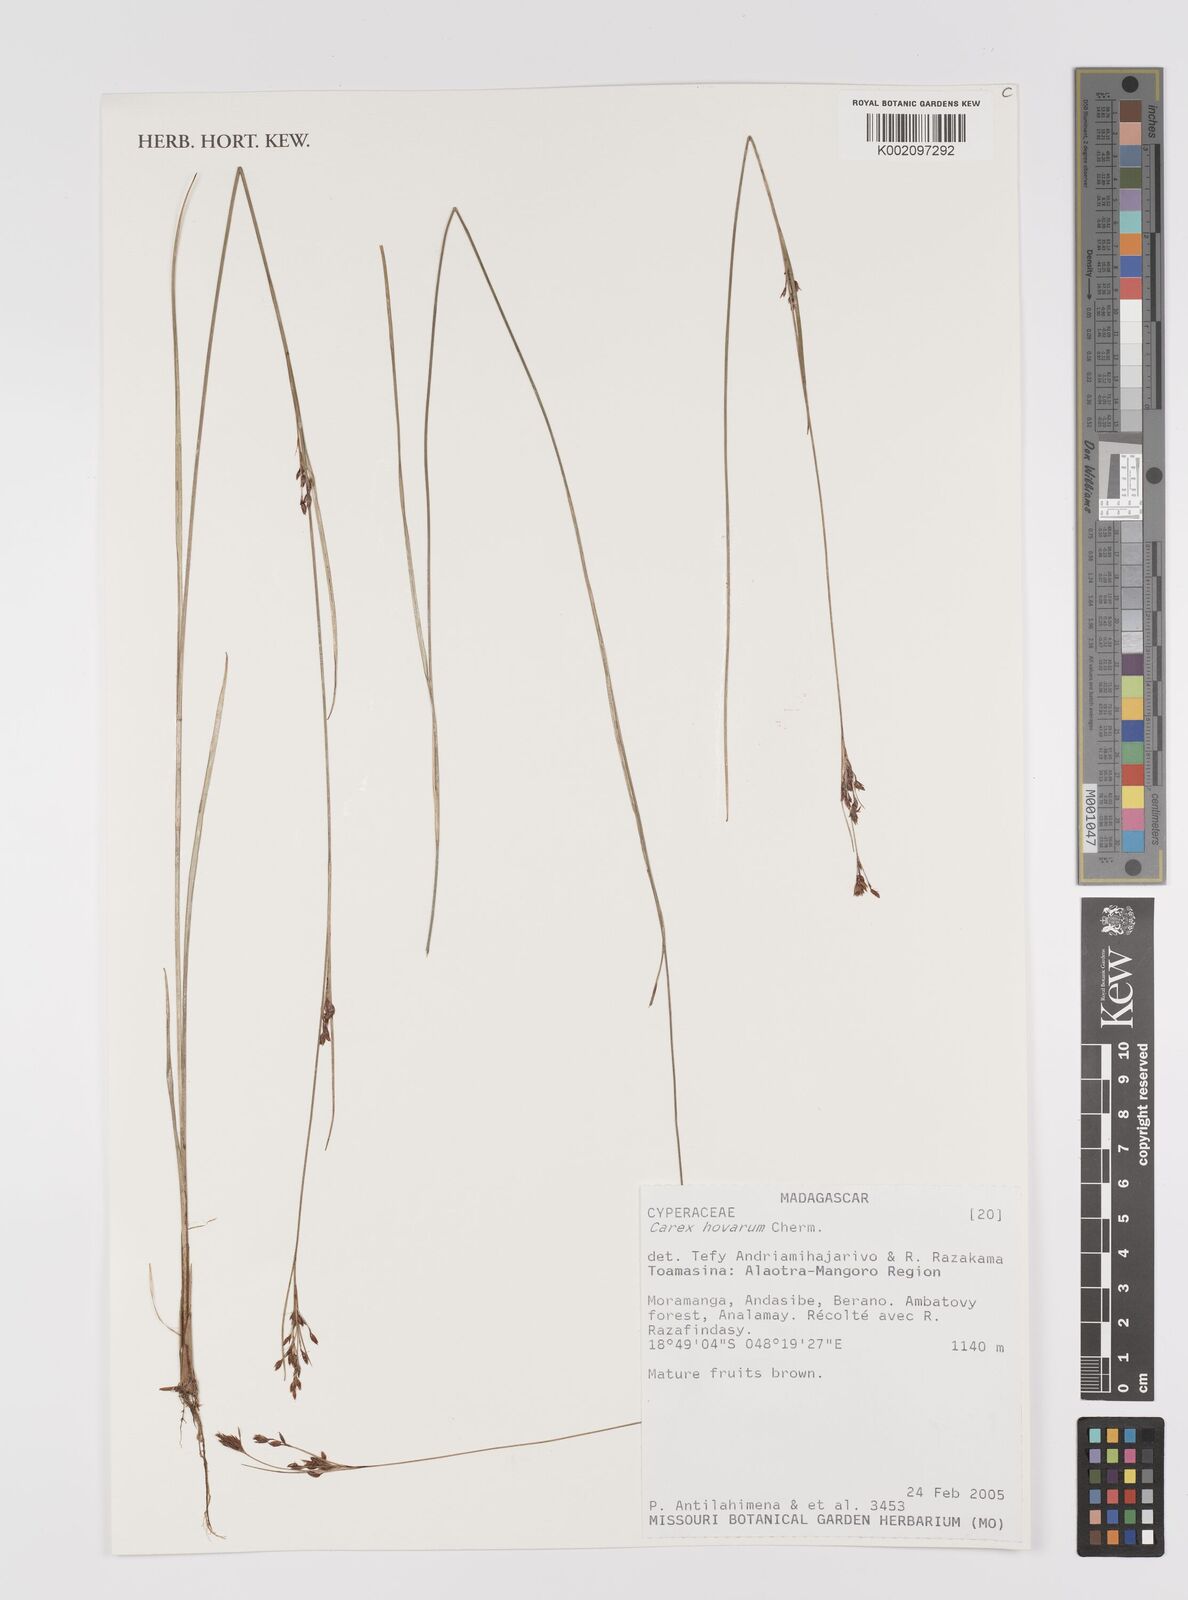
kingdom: Plantae
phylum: Tracheophyta
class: Liliopsida
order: Poales
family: Cyperaceae
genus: Carex
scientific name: Carex hovarum
